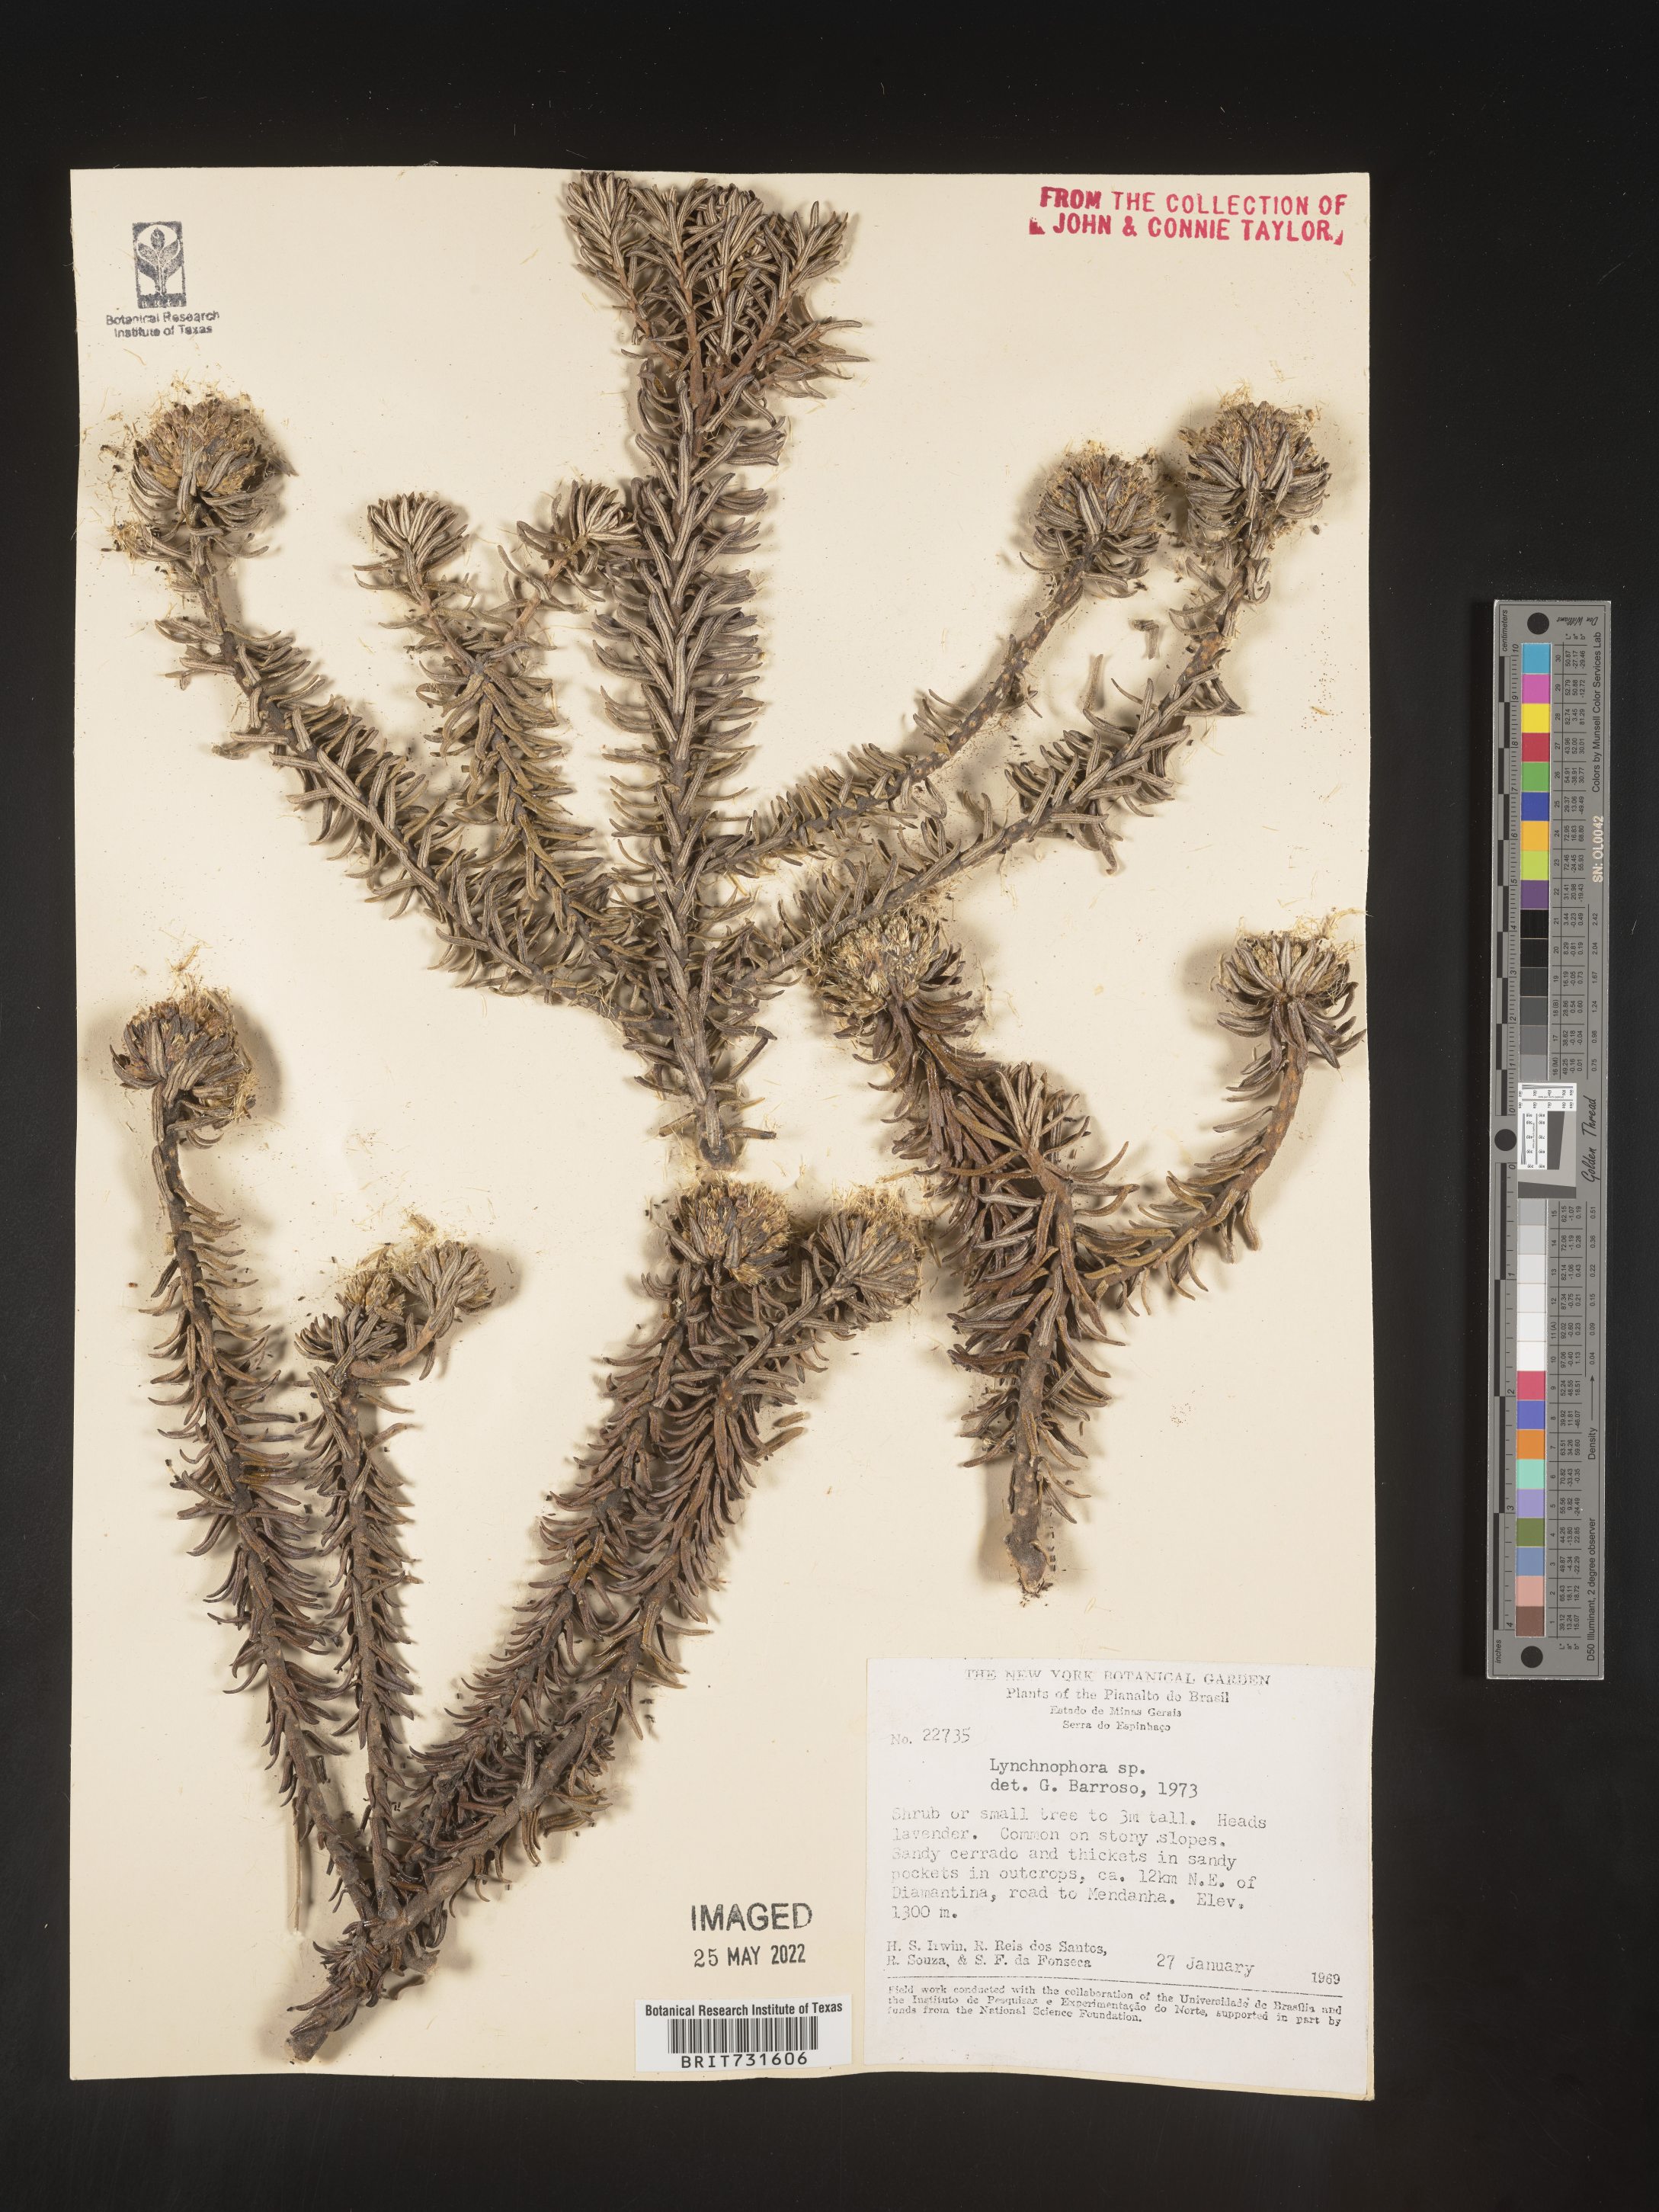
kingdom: Plantae
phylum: Tracheophyta
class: Magnoliopsida
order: Asterales
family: Asteraceae
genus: Lychnophora
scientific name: Lychnophora
